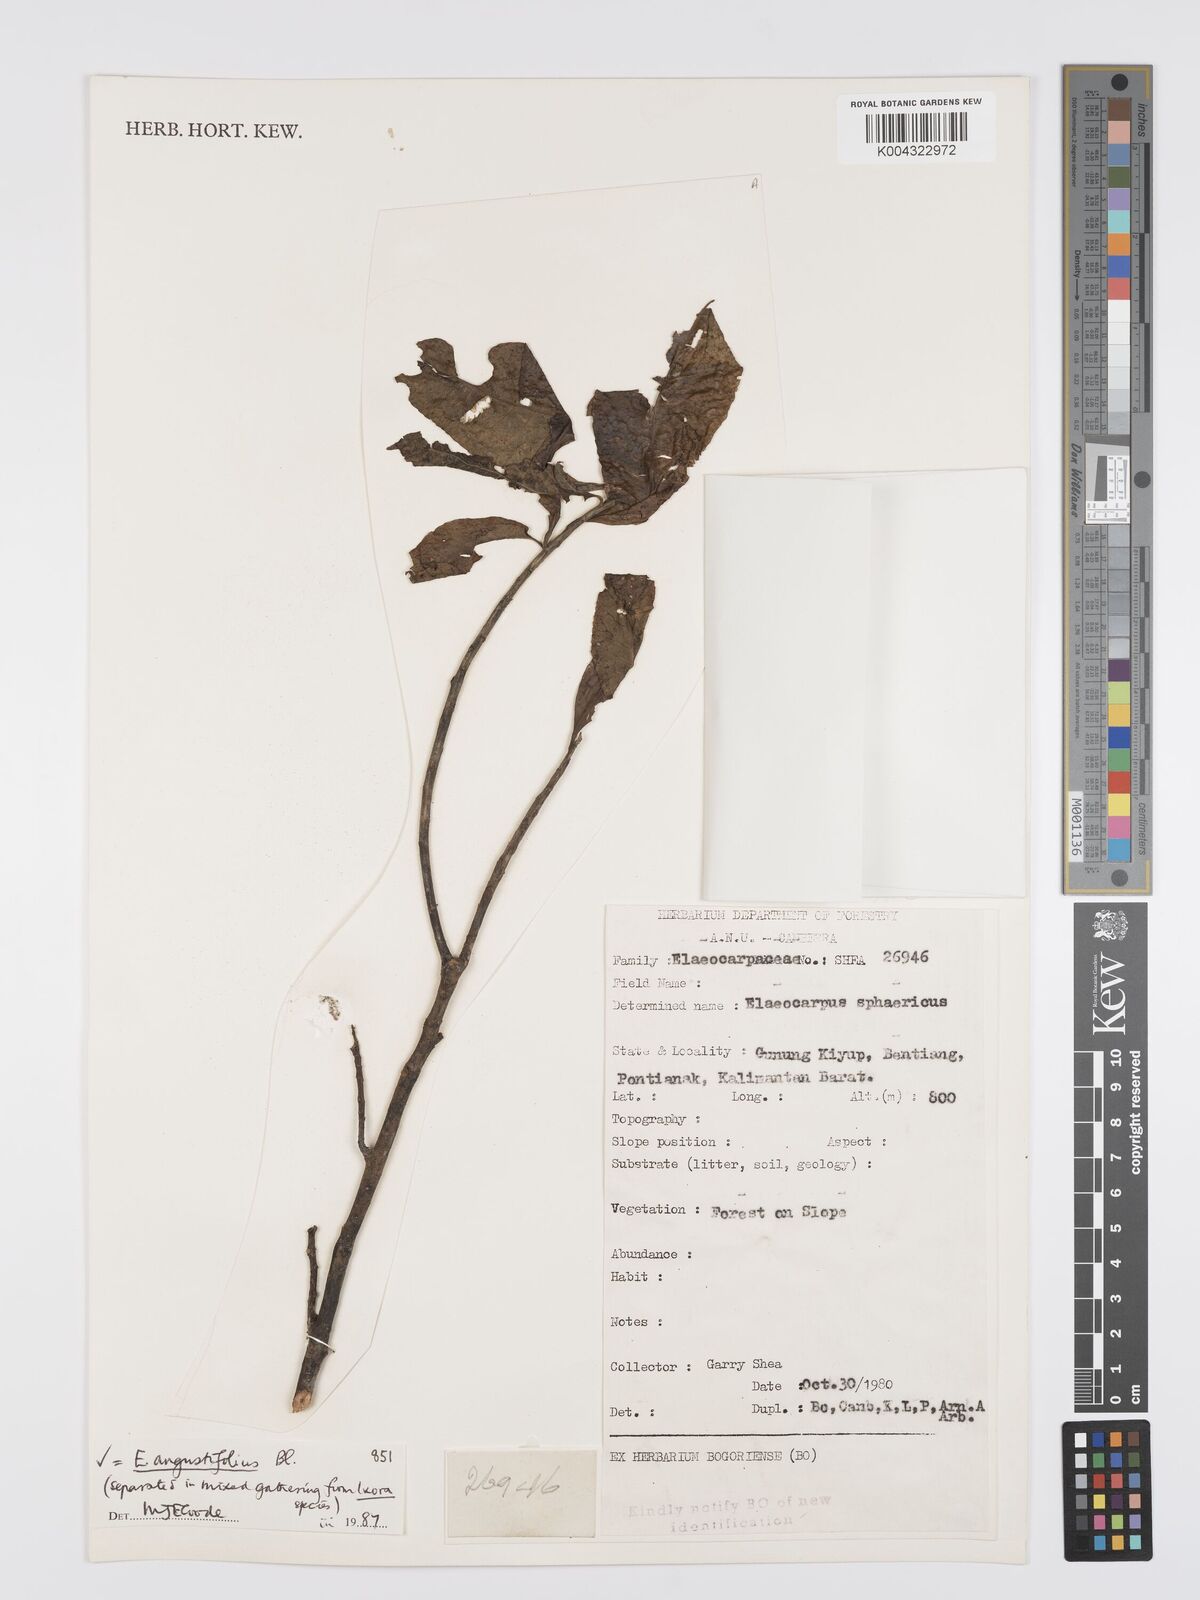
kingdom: Plantae
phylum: Tracheophyta
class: Magnoliopsida
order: Oxalidales
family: Elaeocarpaceae
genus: Elaeocarpus
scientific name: Elaeocarpus
